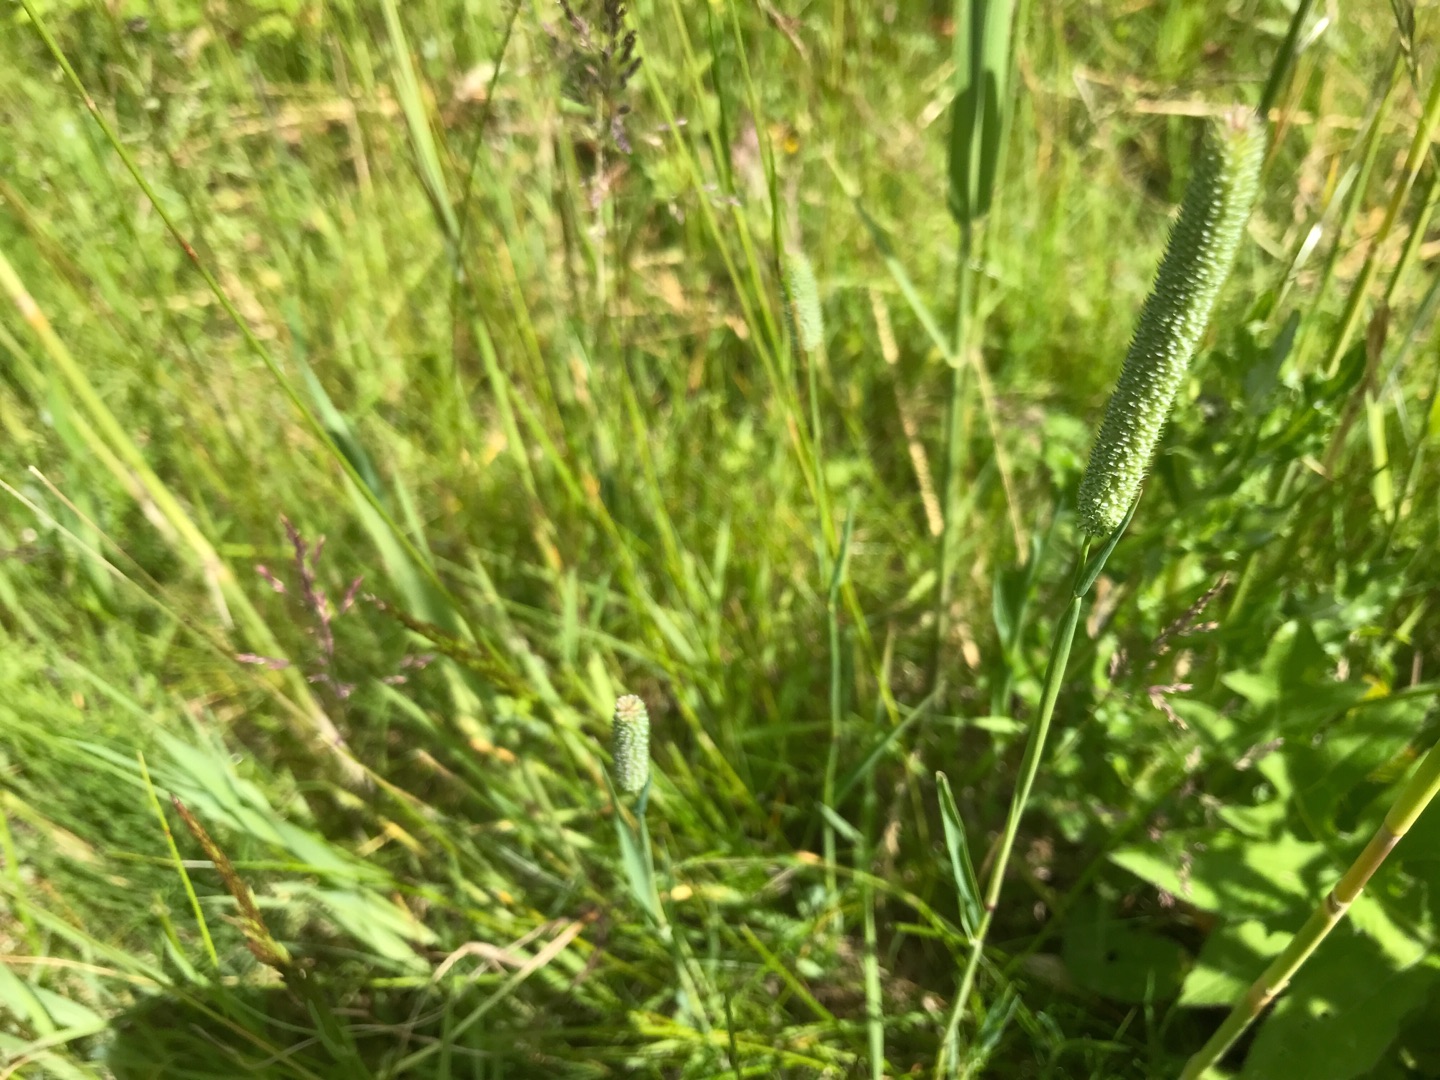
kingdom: Plantae
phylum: Tracheophyta
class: Liliopsida
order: Poales
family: Poaceae
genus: Phleum
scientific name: Phleum pratense
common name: Eng-rottehale
